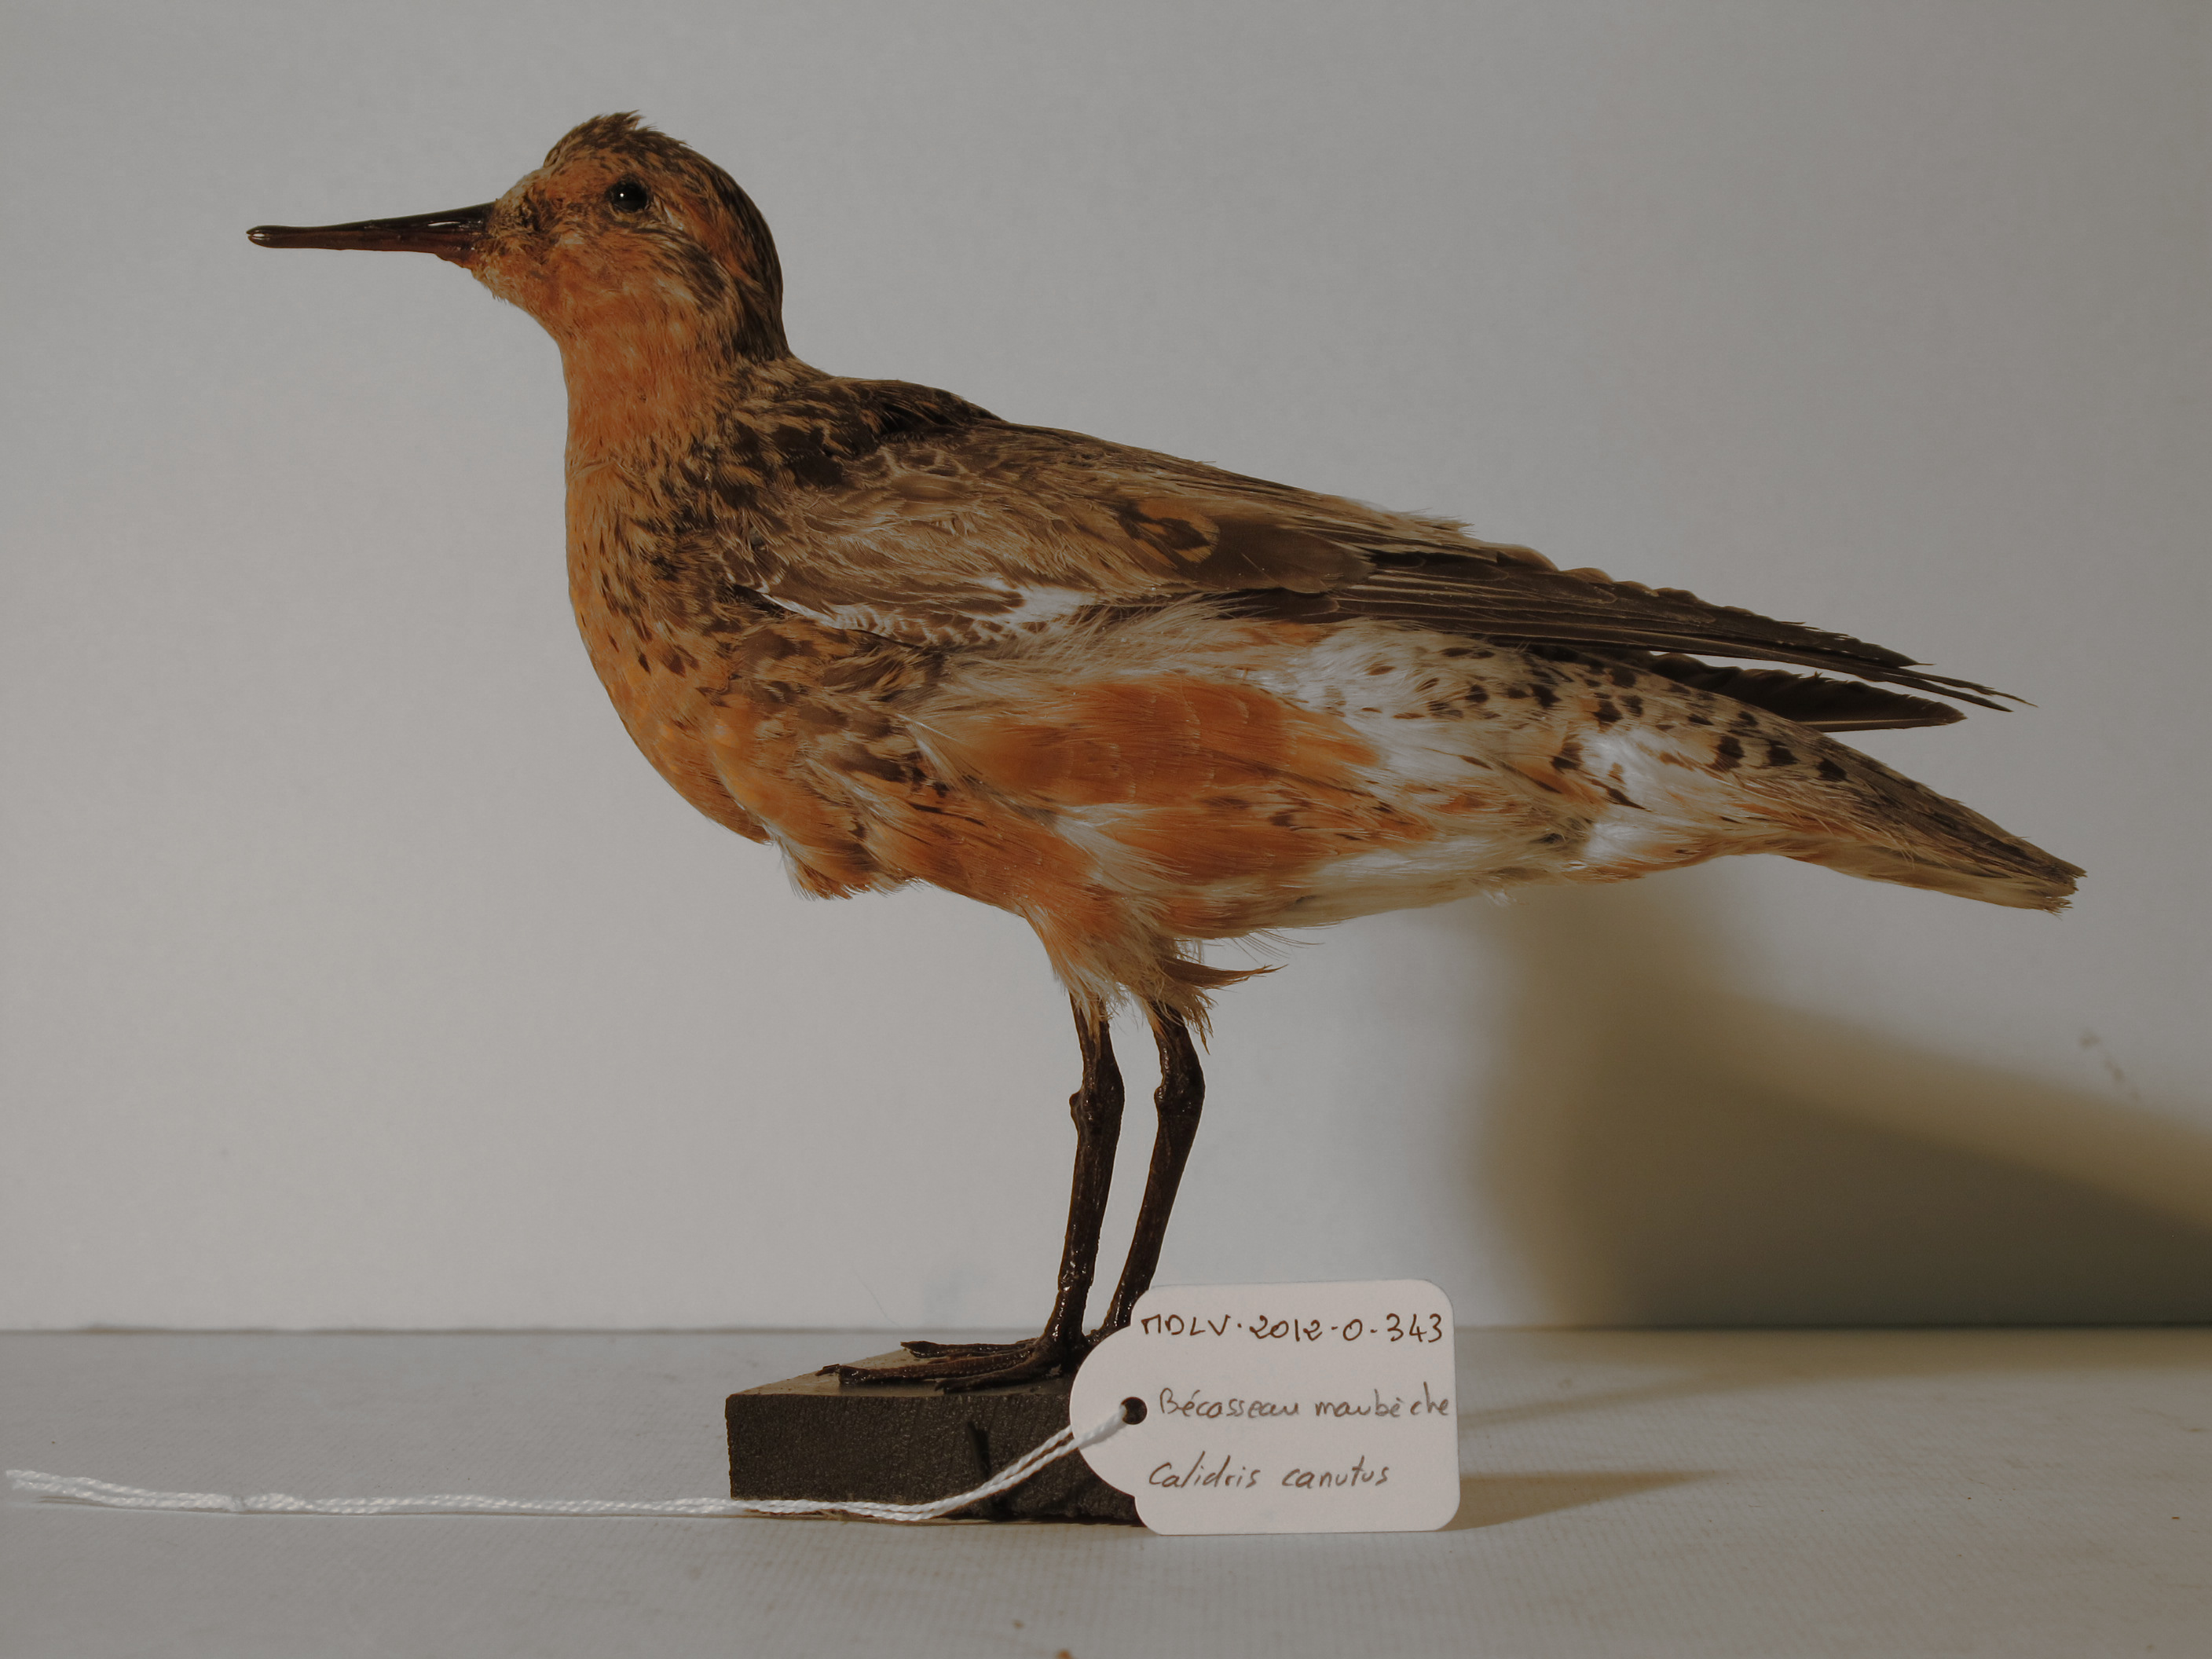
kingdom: Animalia
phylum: Chordata
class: Aves
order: Charadriiformes
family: Scolopacidae
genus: Calidris
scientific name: Calidris canutus
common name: Red Knot
